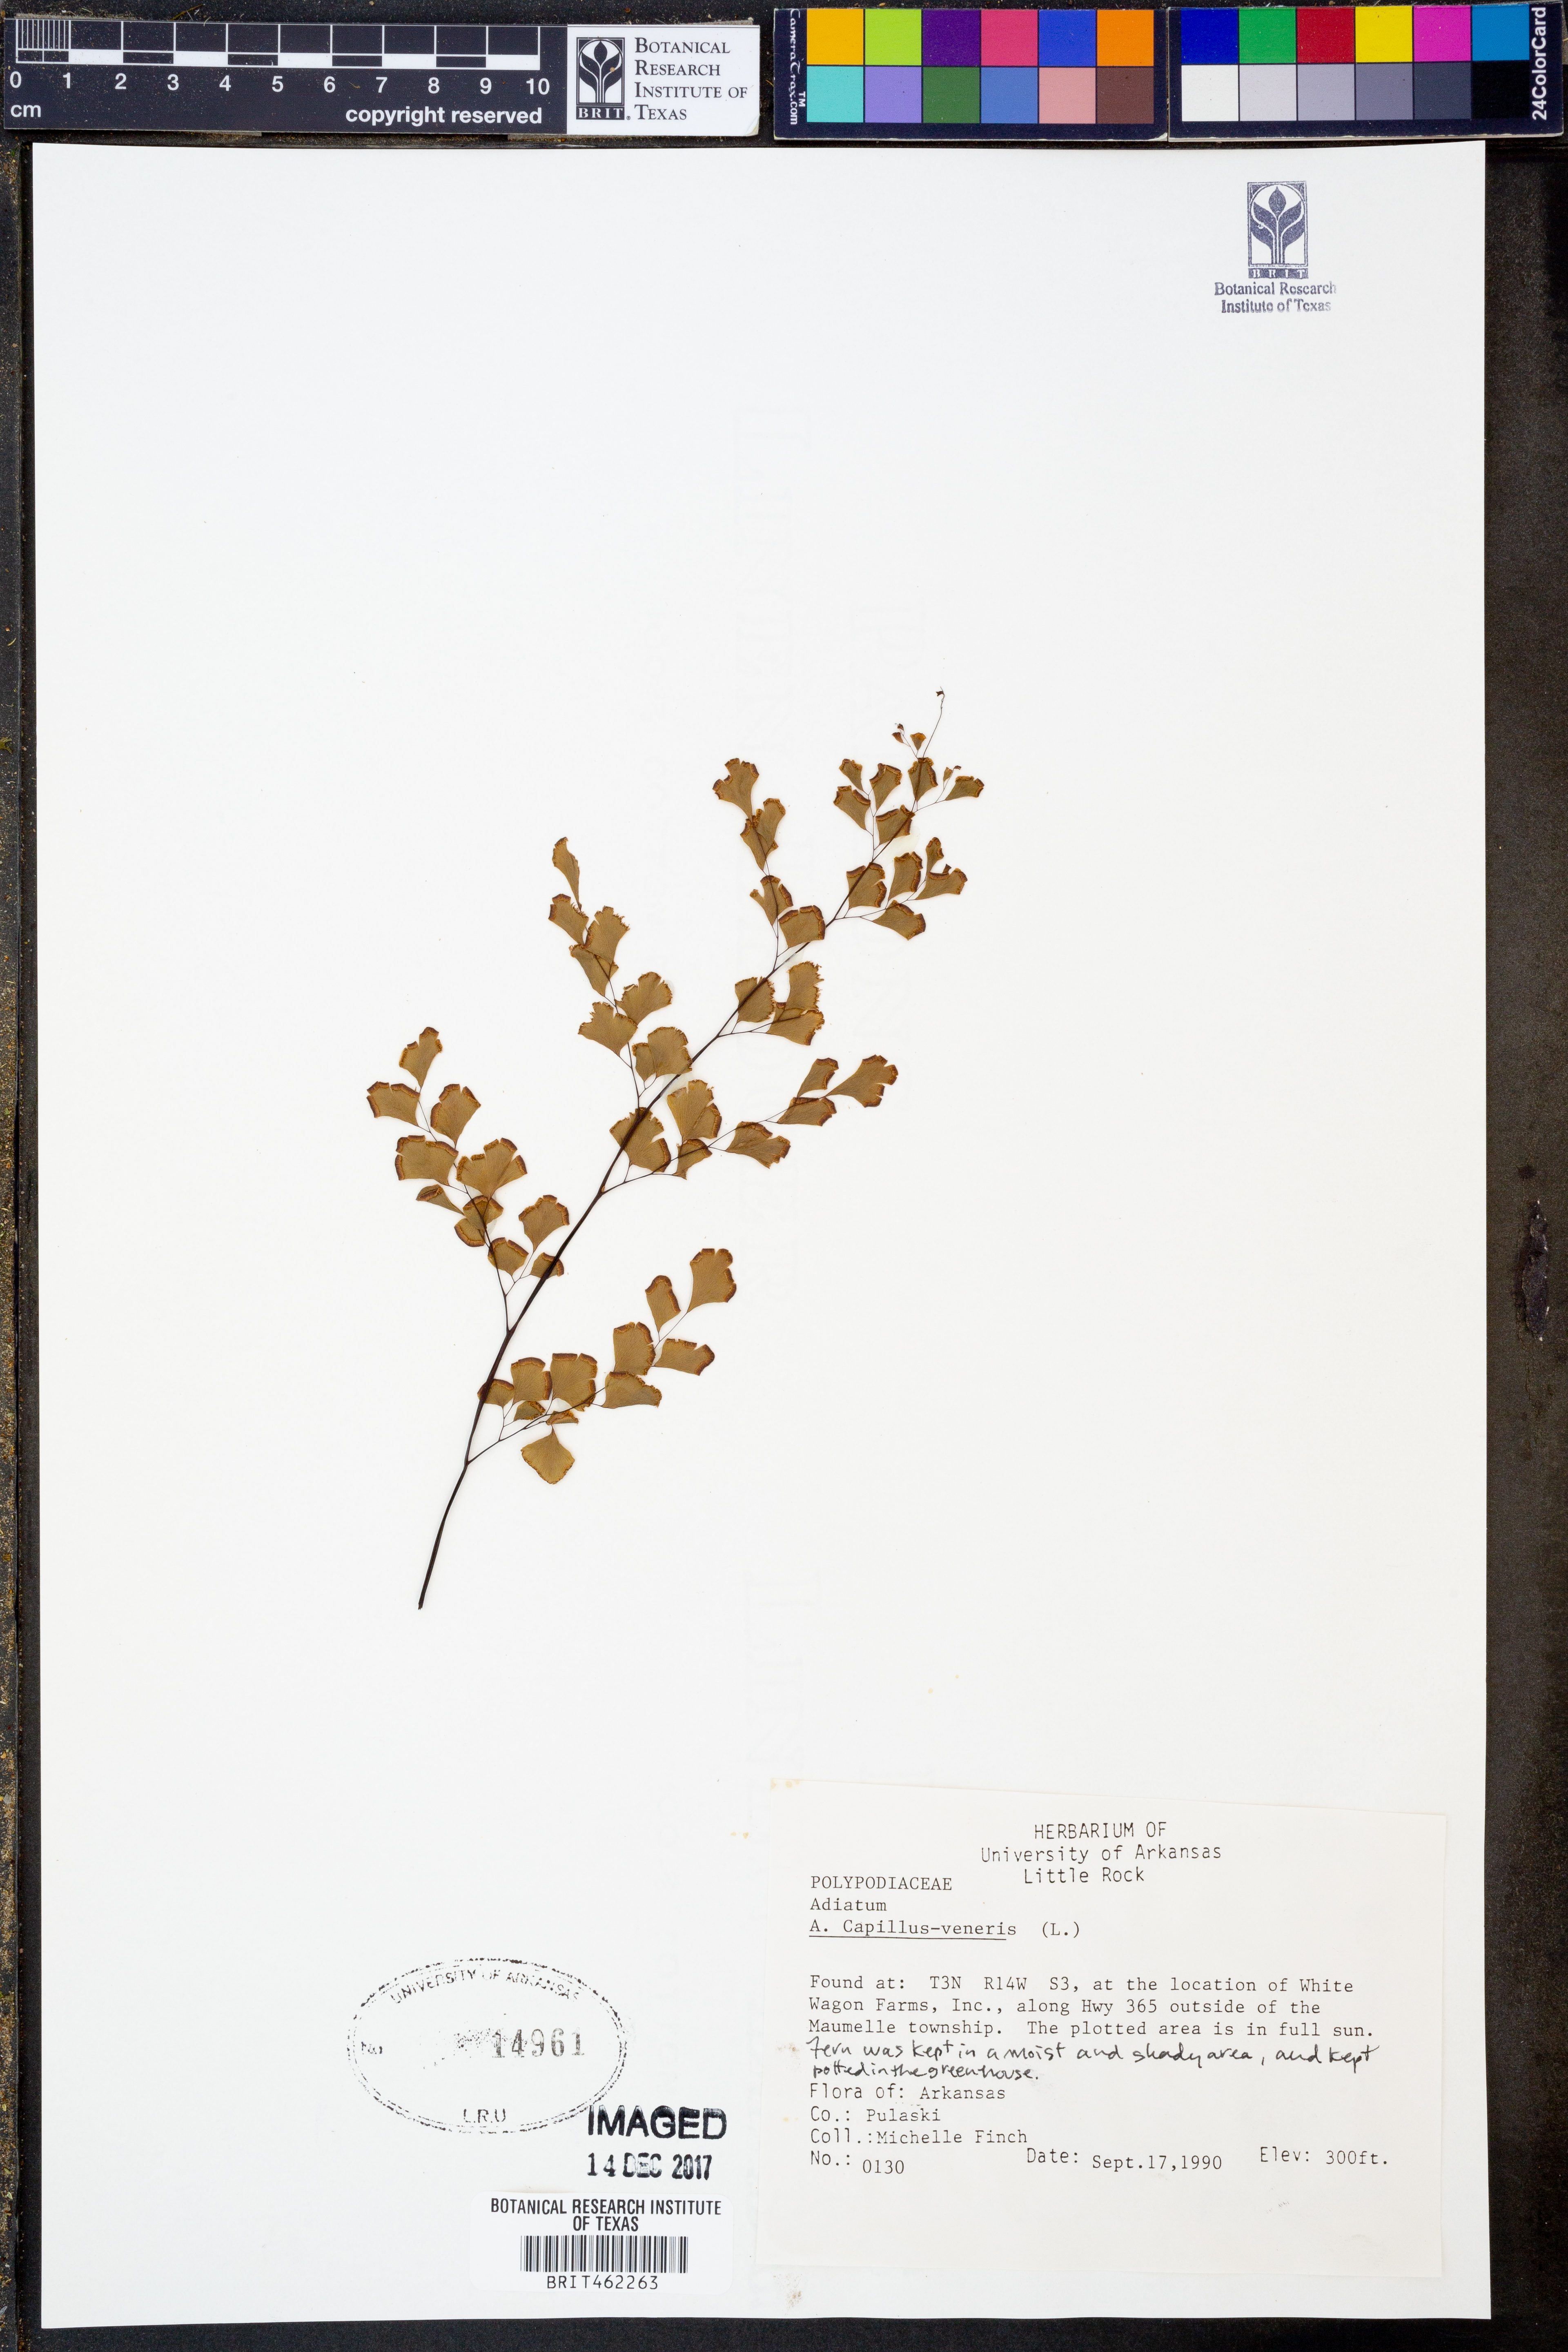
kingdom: Plantae
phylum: Tracheophyta
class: Polypodiopsida
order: Polypodiales
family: Pteridaceae
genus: Adiantum
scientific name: Adiantum capillus-veneris
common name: Maidenhair fern
